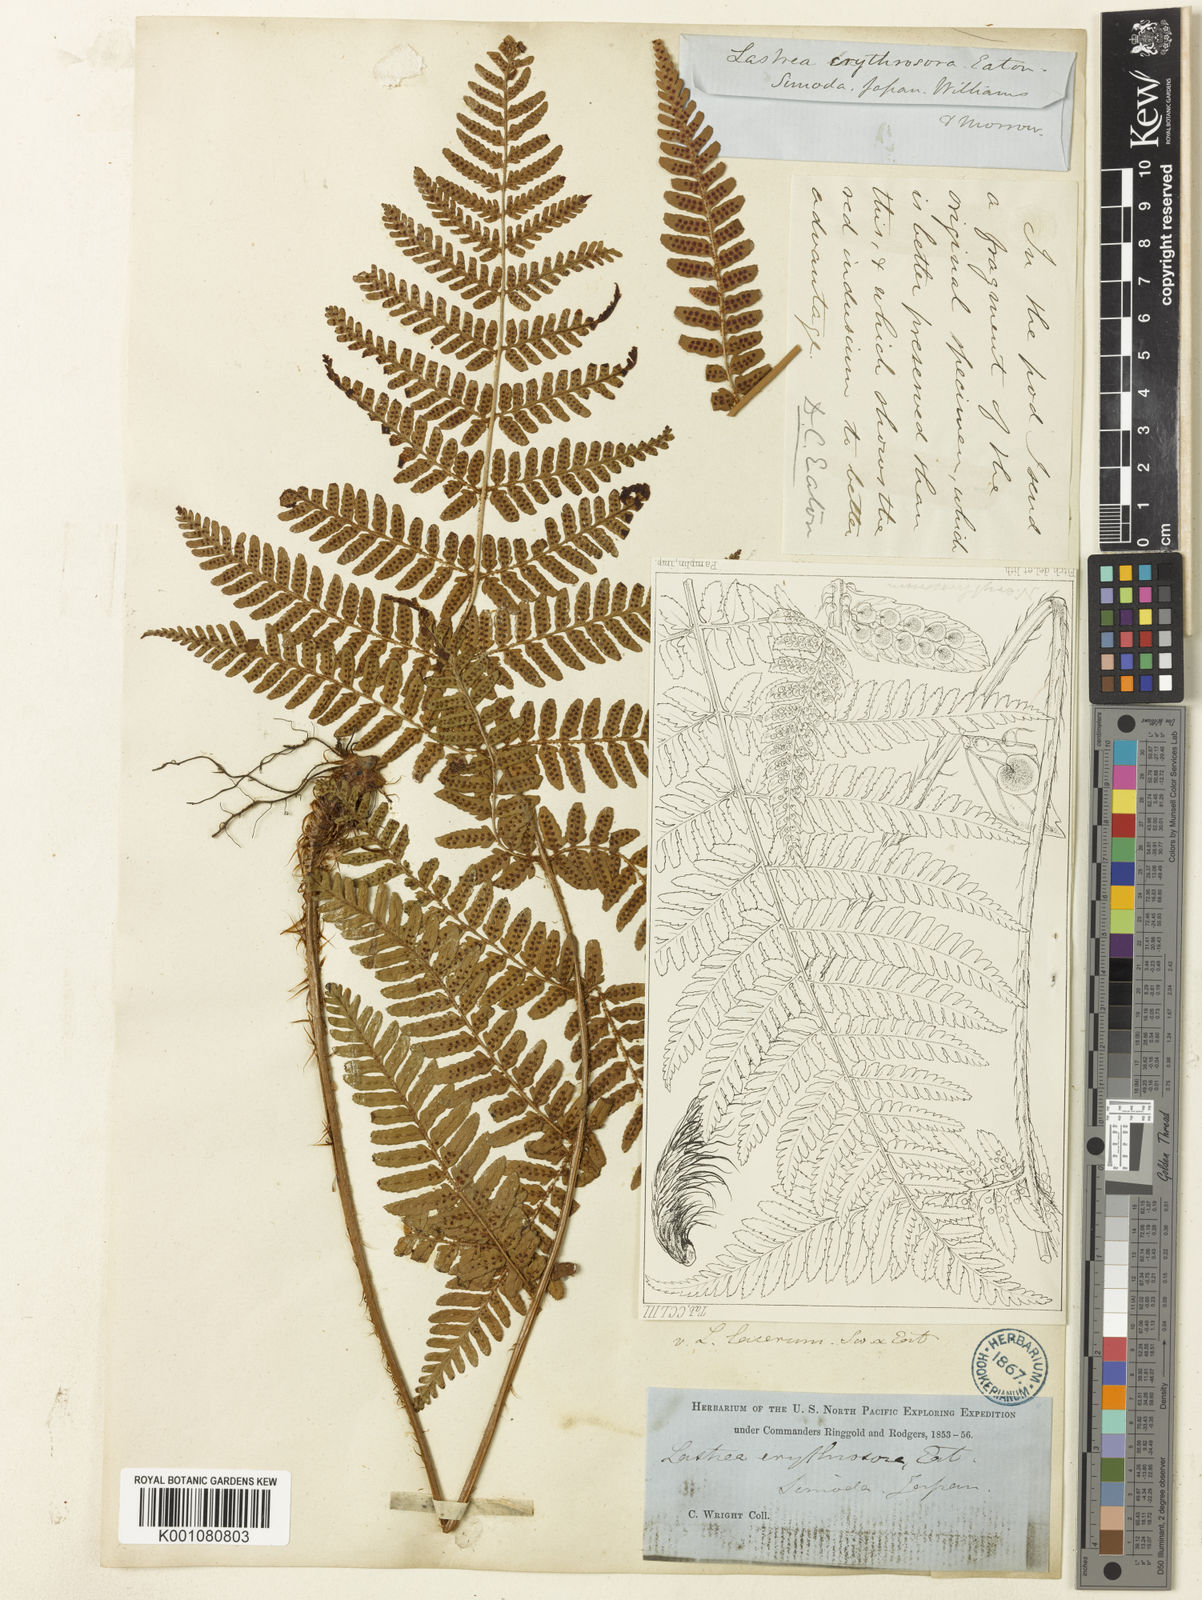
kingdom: Plantae
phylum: Tracheophyta
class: Polypodiopsida
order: Polypodiales
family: Dryopteridaceae
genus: Dryopteris
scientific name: Dryopteris erythrosora
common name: Autumn fern
